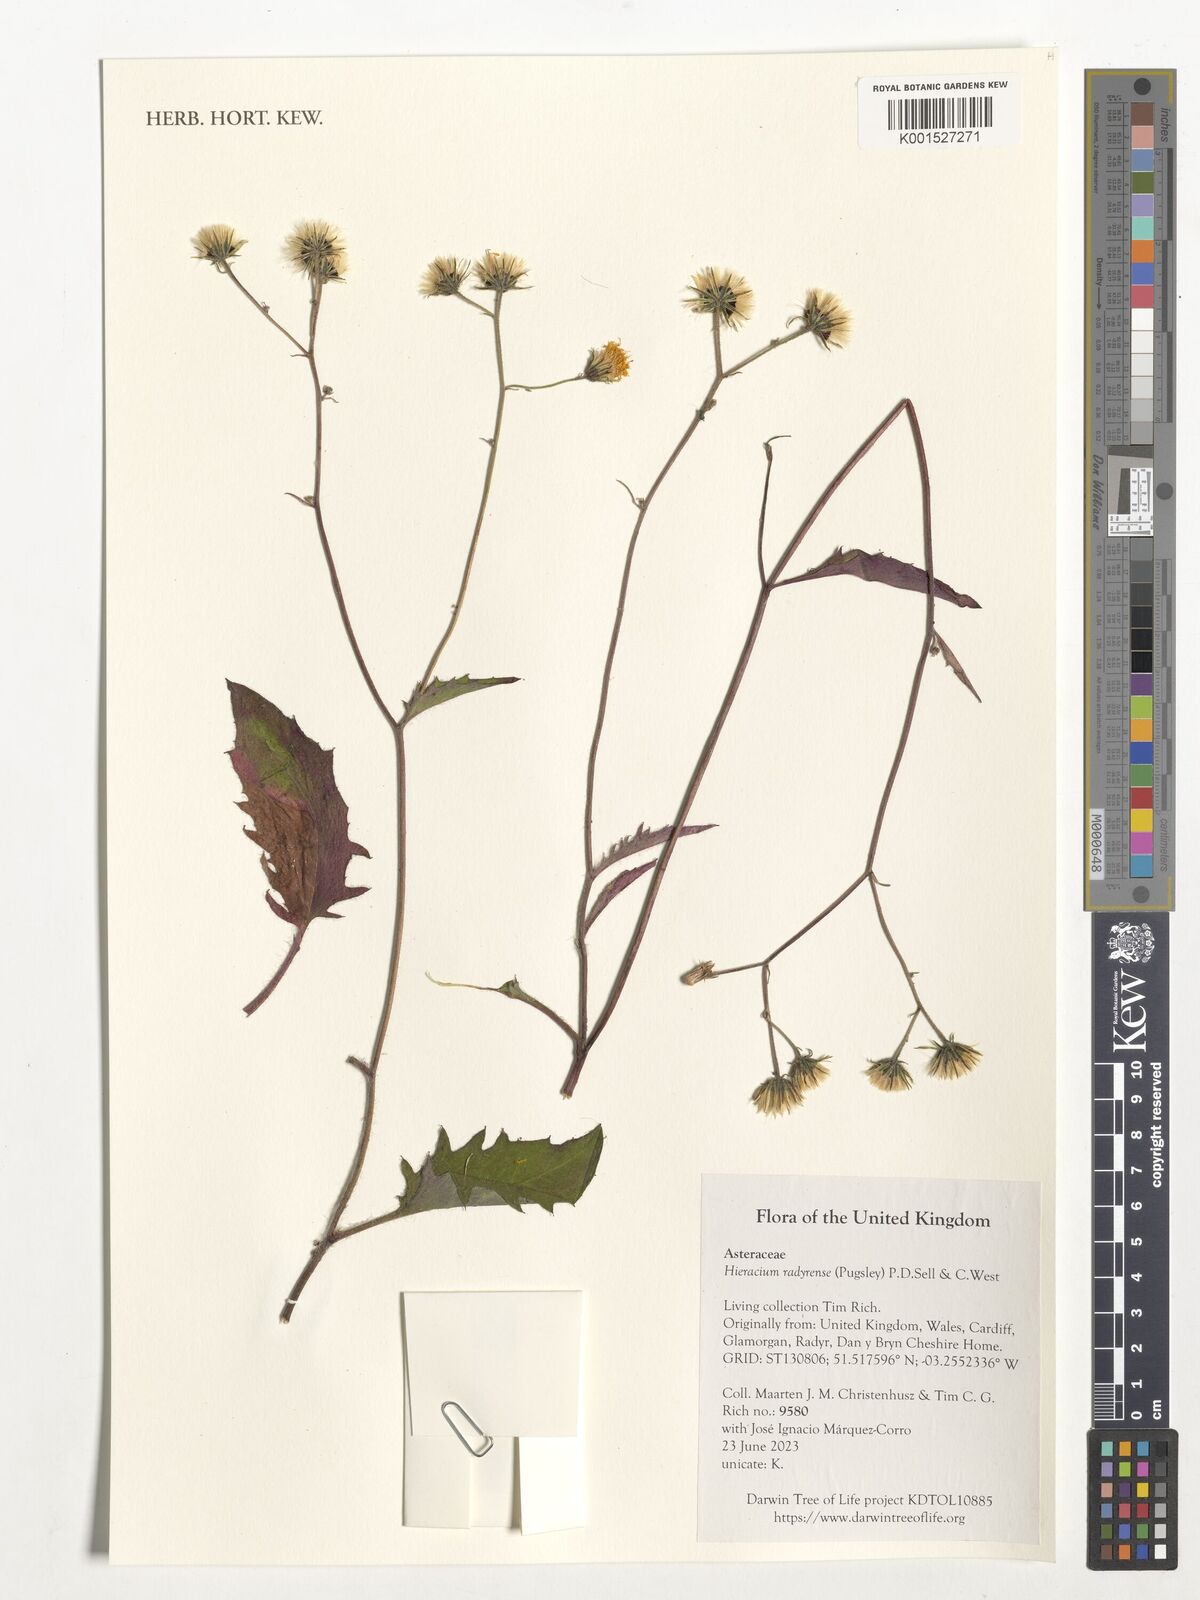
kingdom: Plantae
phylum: Tracheophyta
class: Magnoliopsida
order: Asterales
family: Asteraceae
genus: Hieracium
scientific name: Hieracium radyrense
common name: Radyr hawkweed
